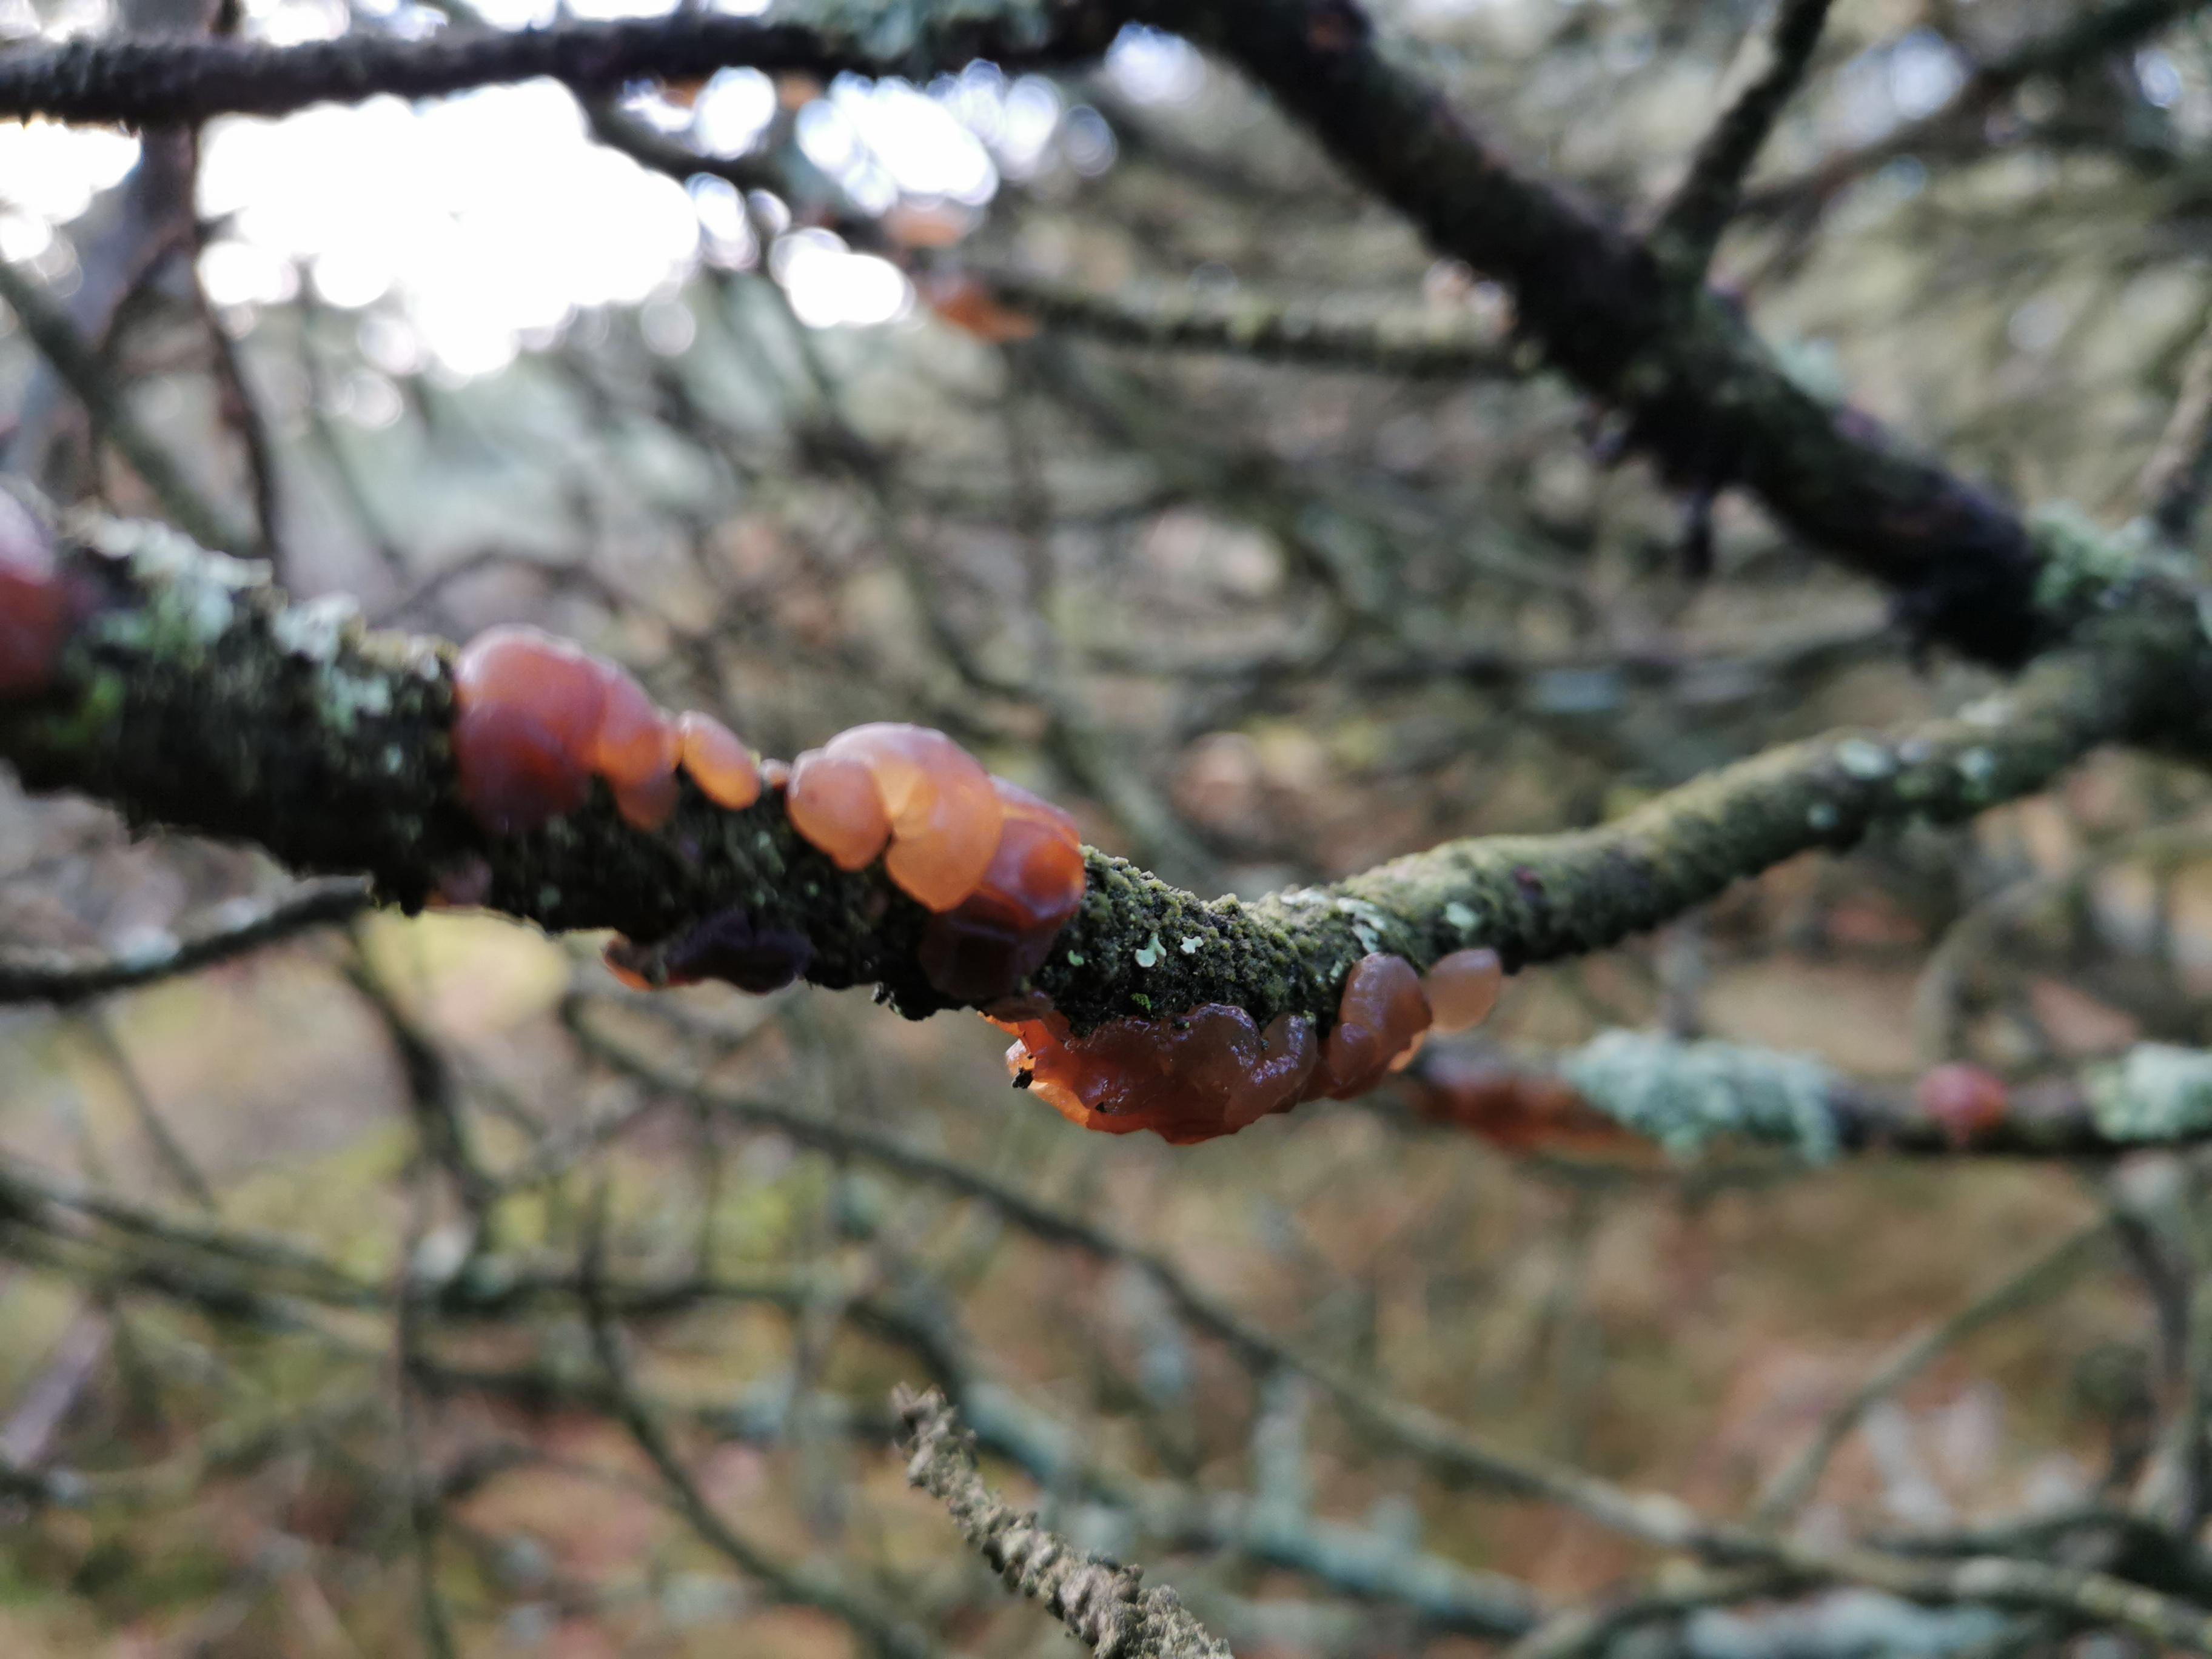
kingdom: Fungi
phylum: Basidiomycota
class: Agaricomycetes
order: Auriculariales
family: Auriculariaceae
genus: Exidia
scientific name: Exidia saccharina
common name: kandis-bævretop
